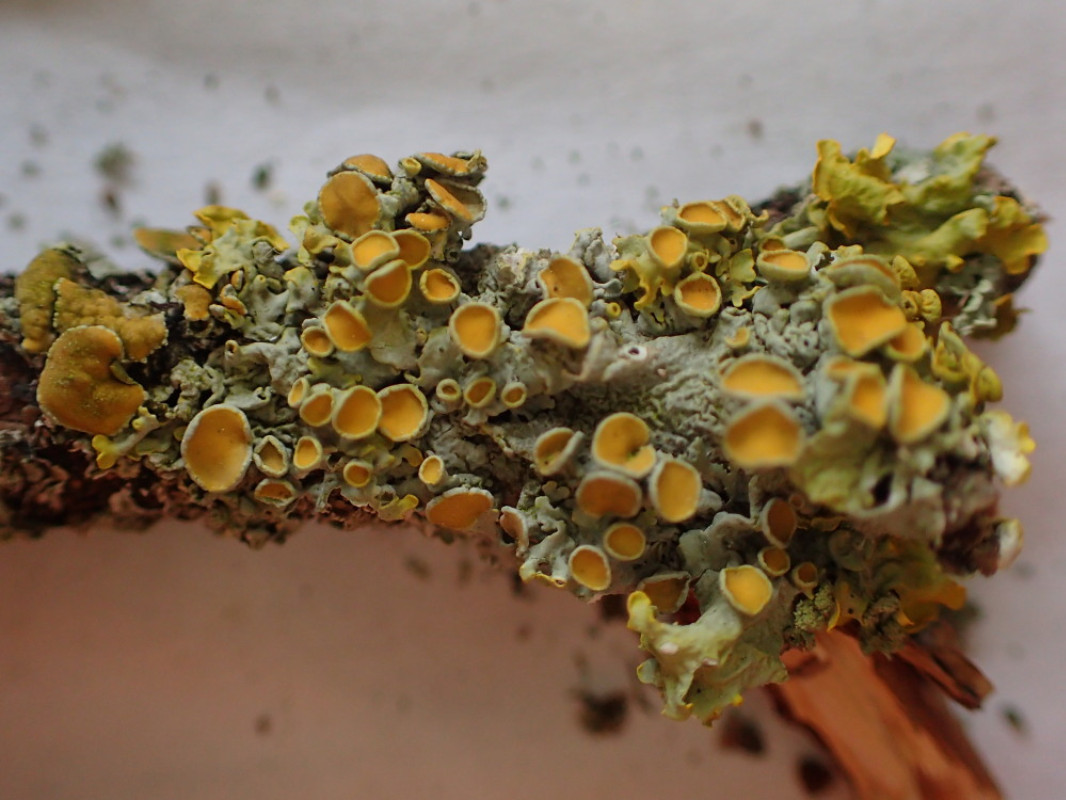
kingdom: Fungi
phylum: Ascomycota
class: Lecanoromycetes
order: Teloschistales
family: Teloschistaceae
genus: Xanthoria
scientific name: Xanthoria parietina
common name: almindelig væggelav
